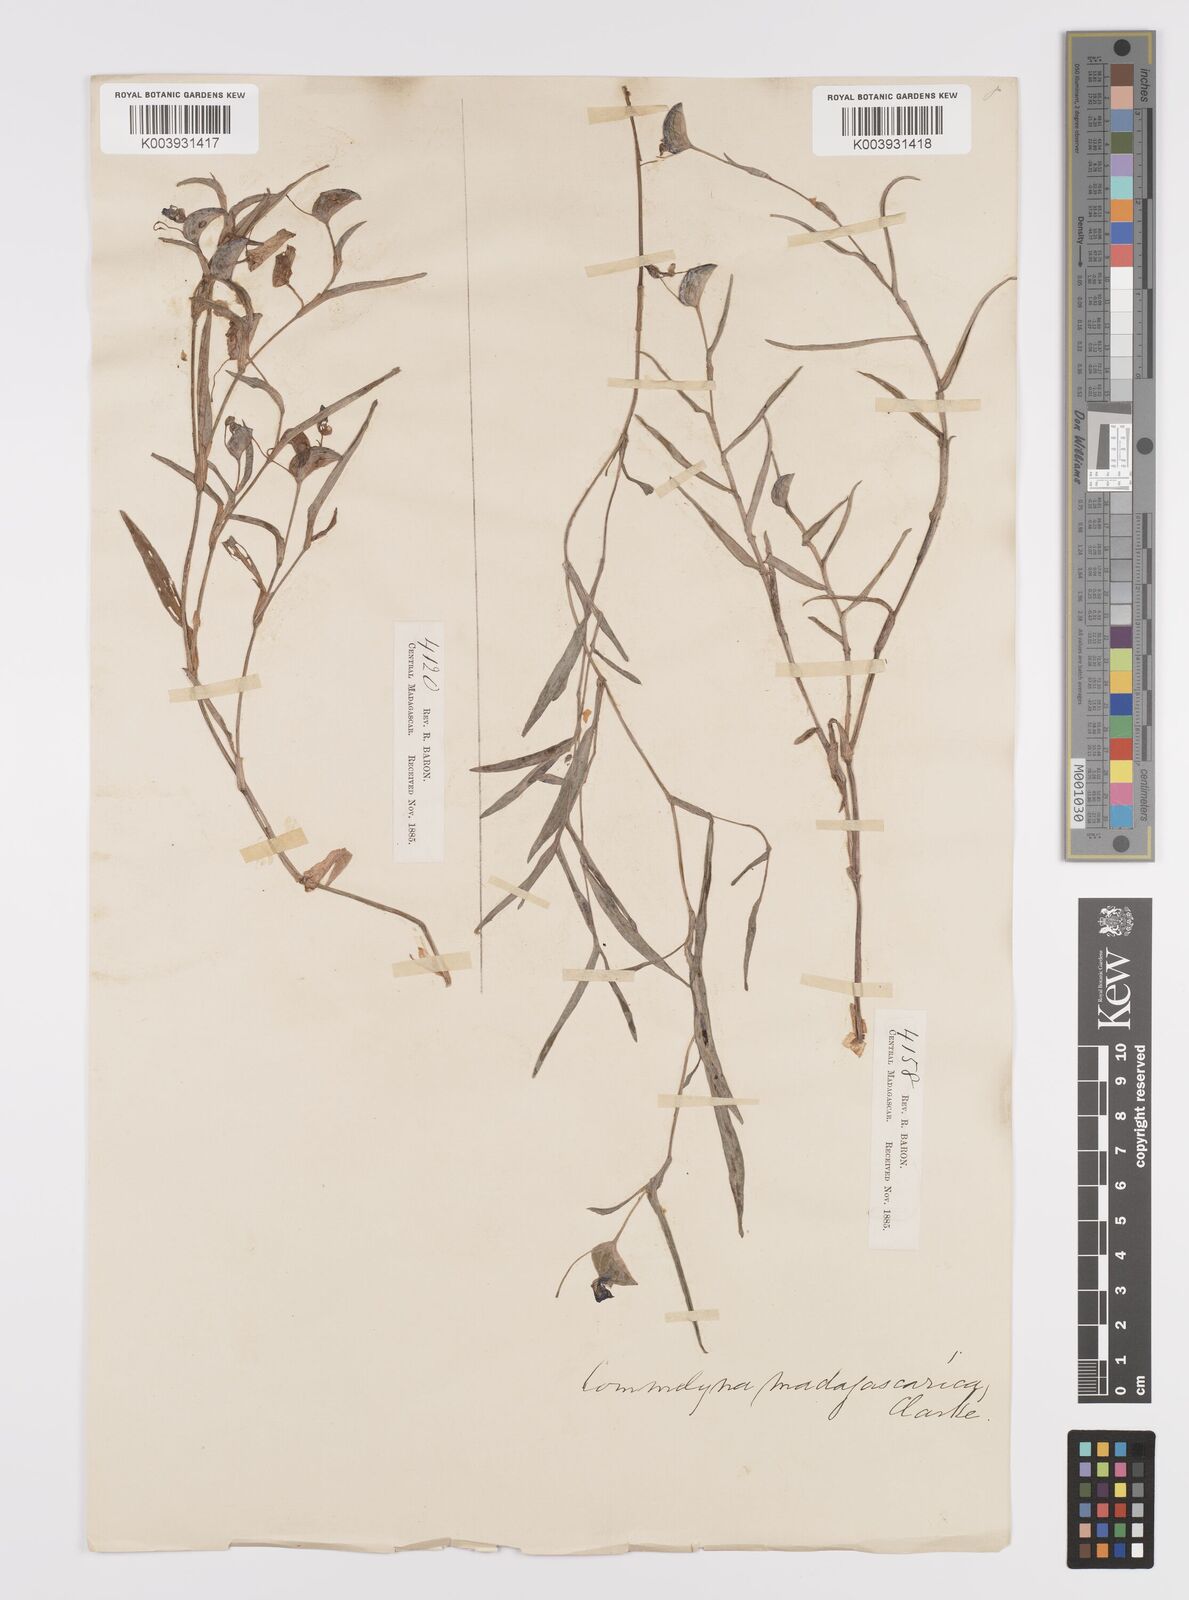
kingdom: Plantae
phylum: Tracheophyta
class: Liliopsida
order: Commelinales
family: Commelinaceae
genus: Commelina
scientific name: Commelina madagascarica
